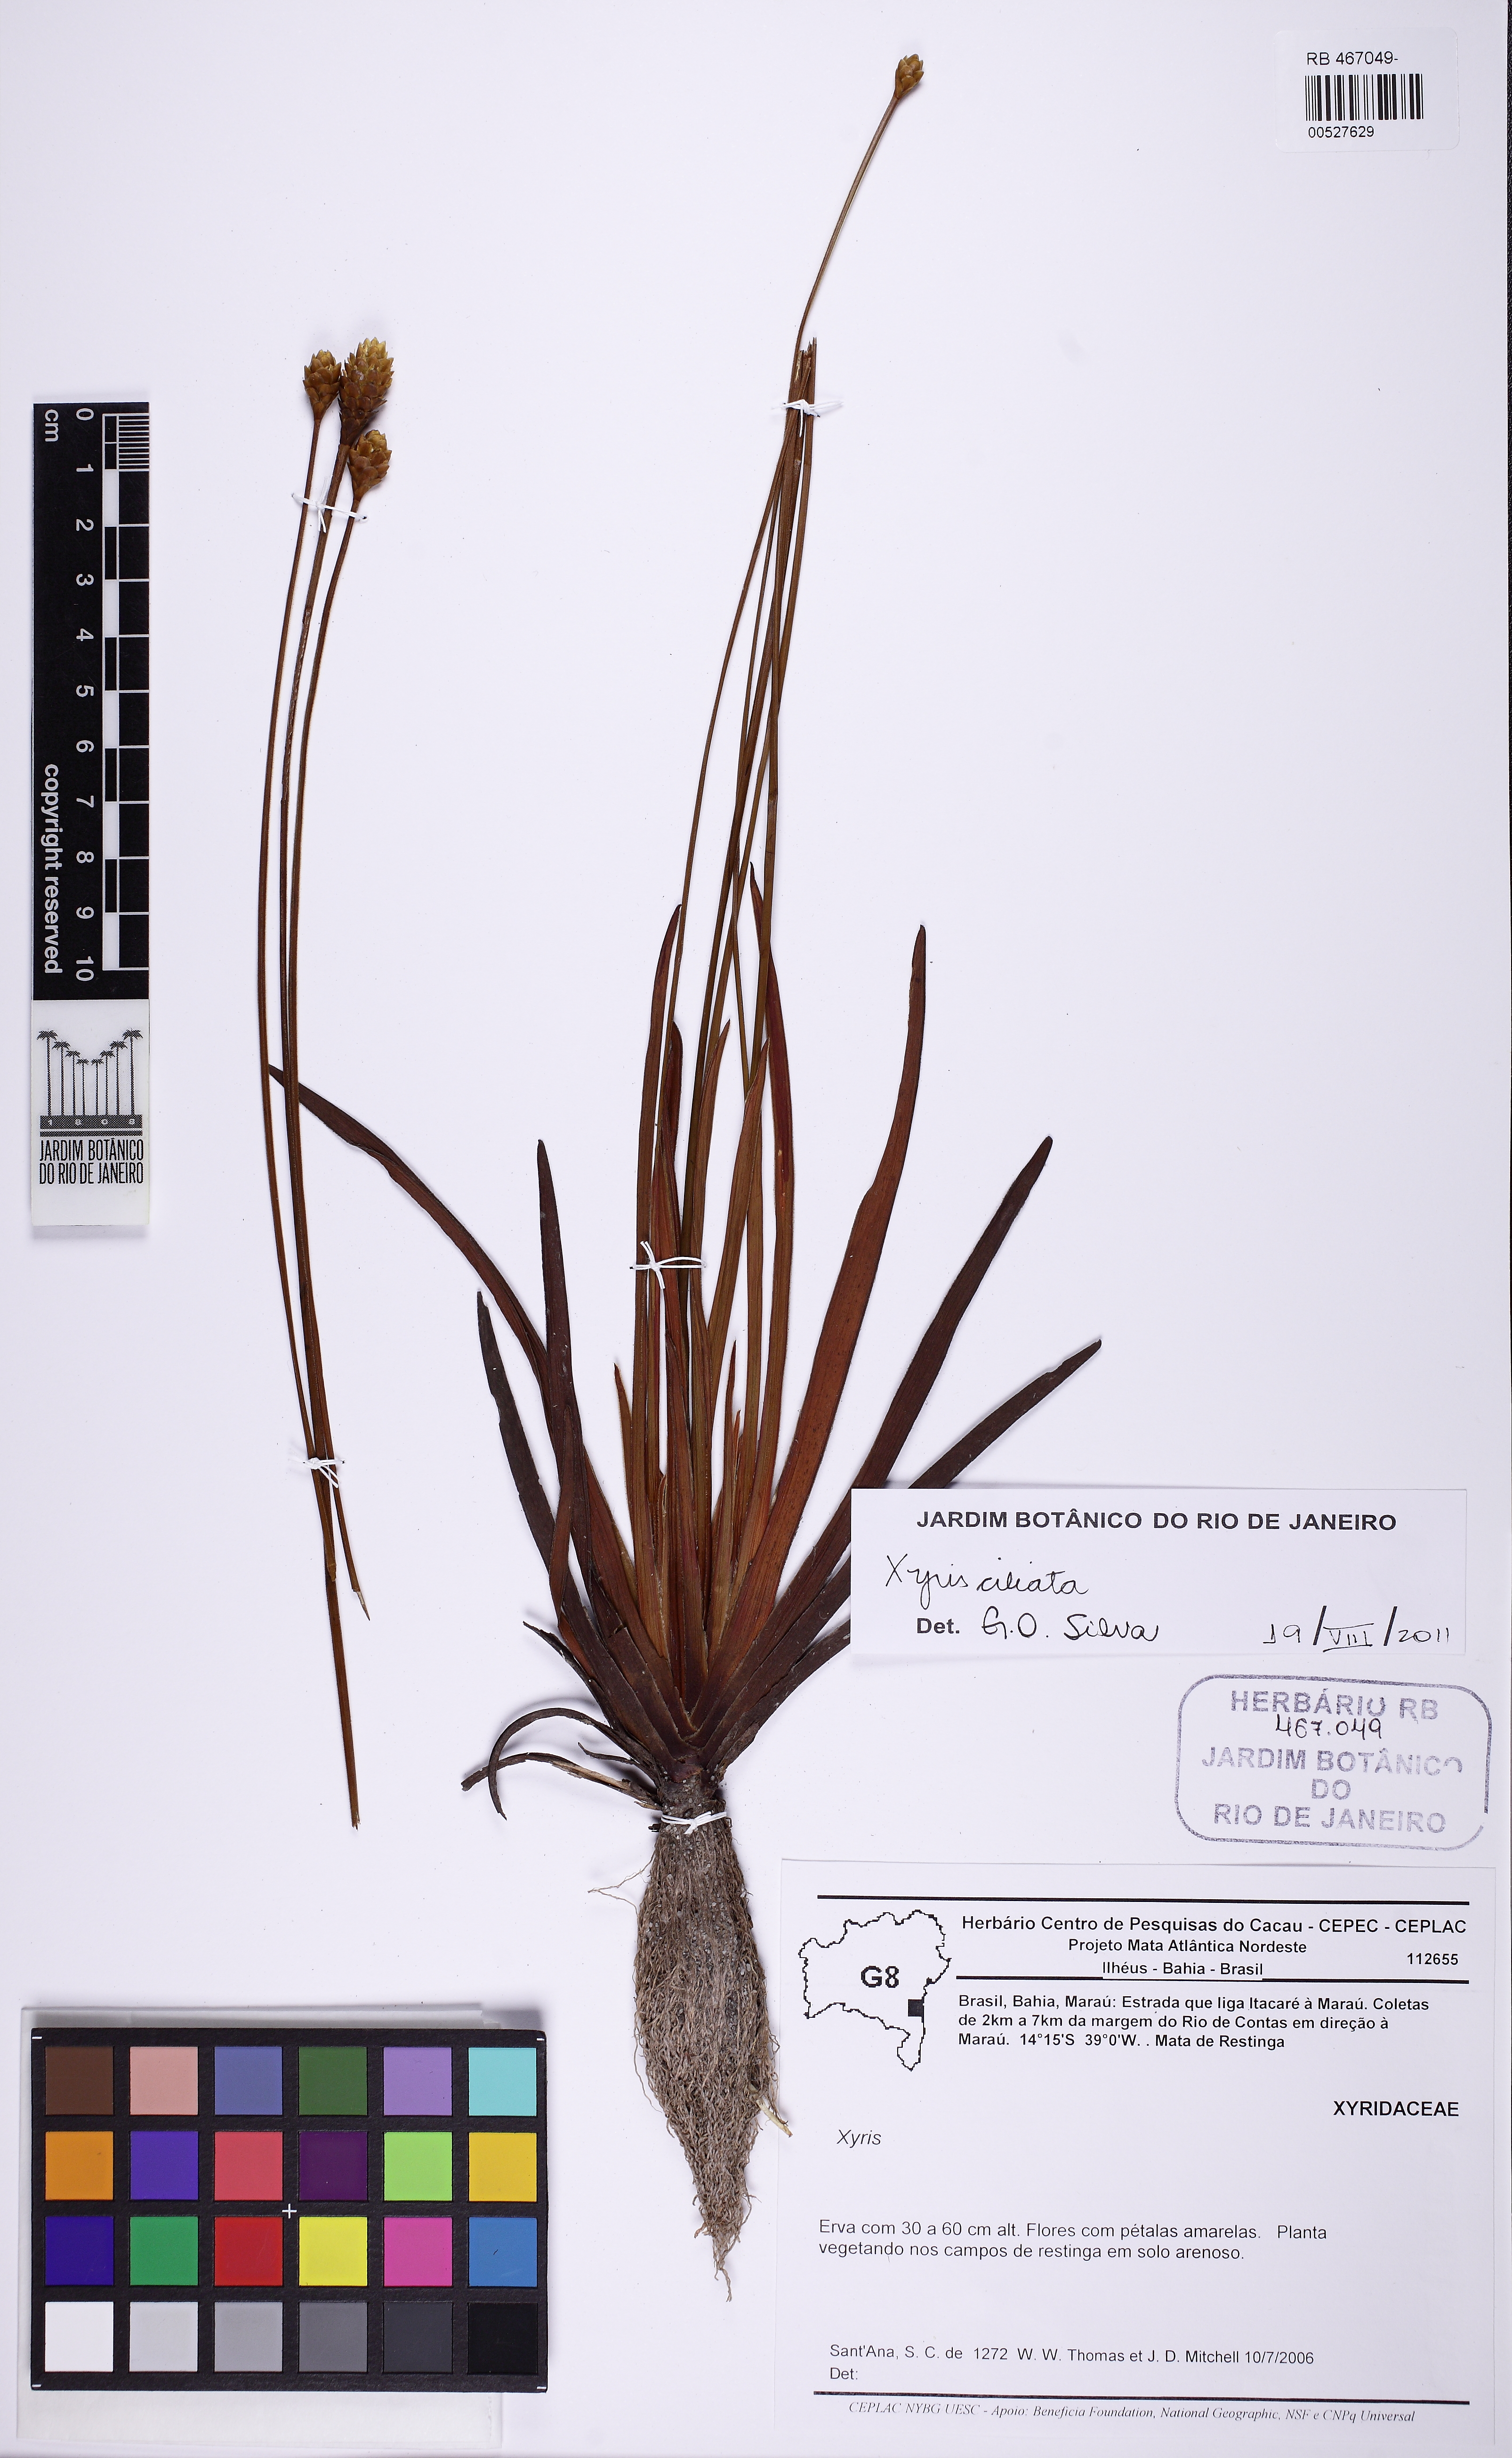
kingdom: Plantae
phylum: Tracheophyta
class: Liliopsida
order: Poales
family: Xyridaceae
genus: Xyris
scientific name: Xyris ciliata
